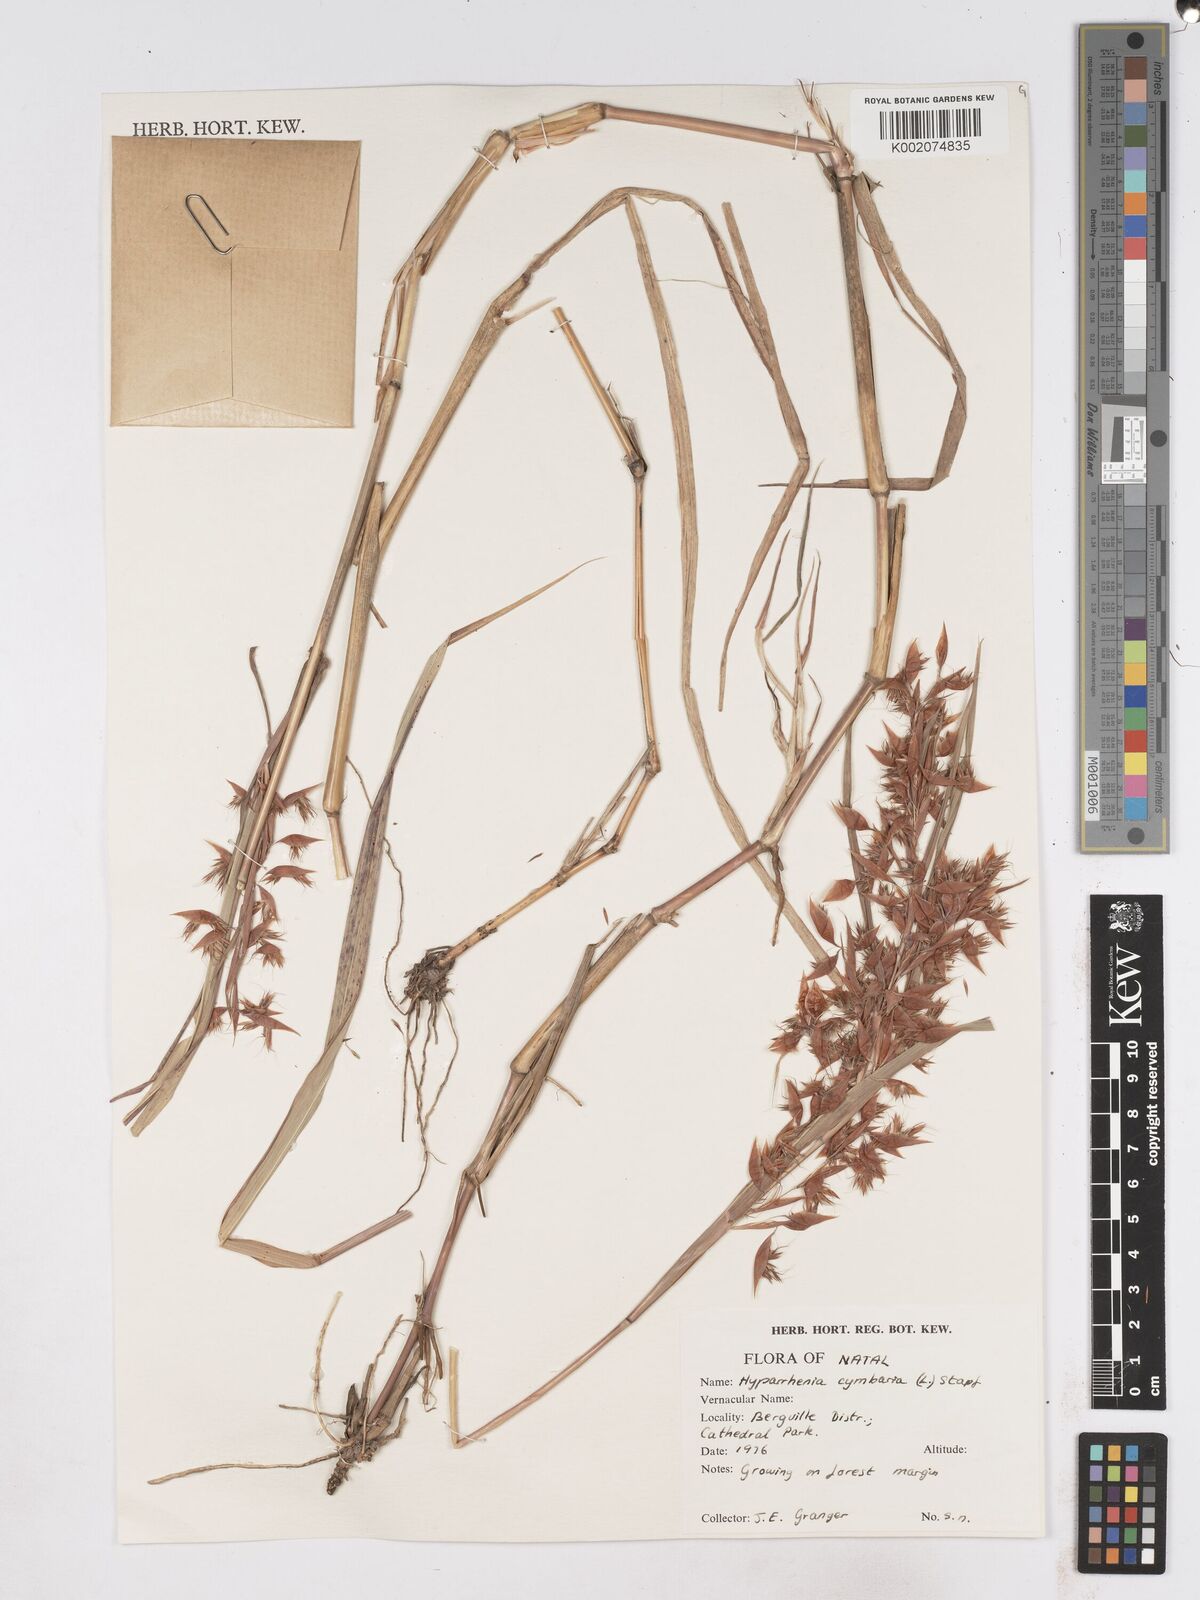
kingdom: Plantae
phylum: Tracheophyta
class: Liliopsida
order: Poales
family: Poaceae
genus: Hyparrhenia
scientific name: Hyparrhenia cymbaria
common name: Boat thatching grass
